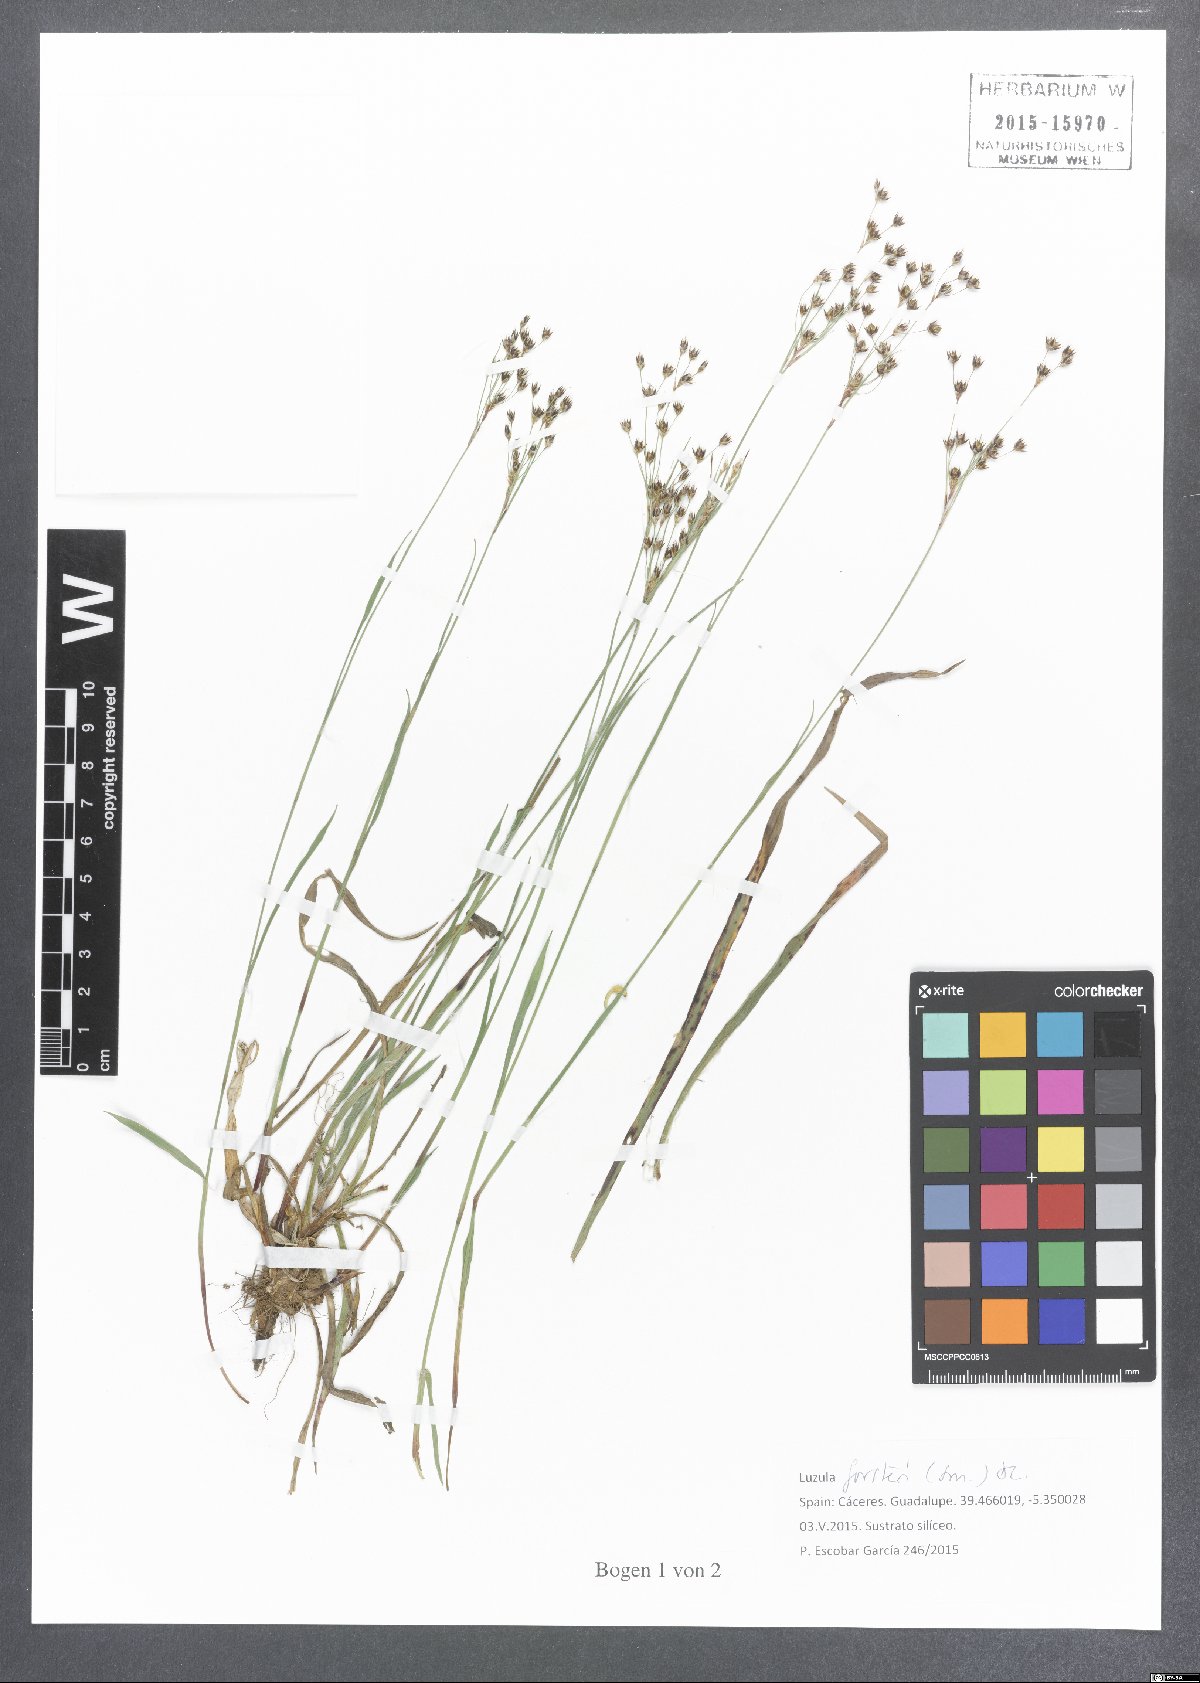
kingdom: Plantae
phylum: Tracheophyta
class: Liliopsida
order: Poales
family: Juncaceae
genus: Luzula
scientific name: Luzula forsteri
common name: Southern wood-rush
